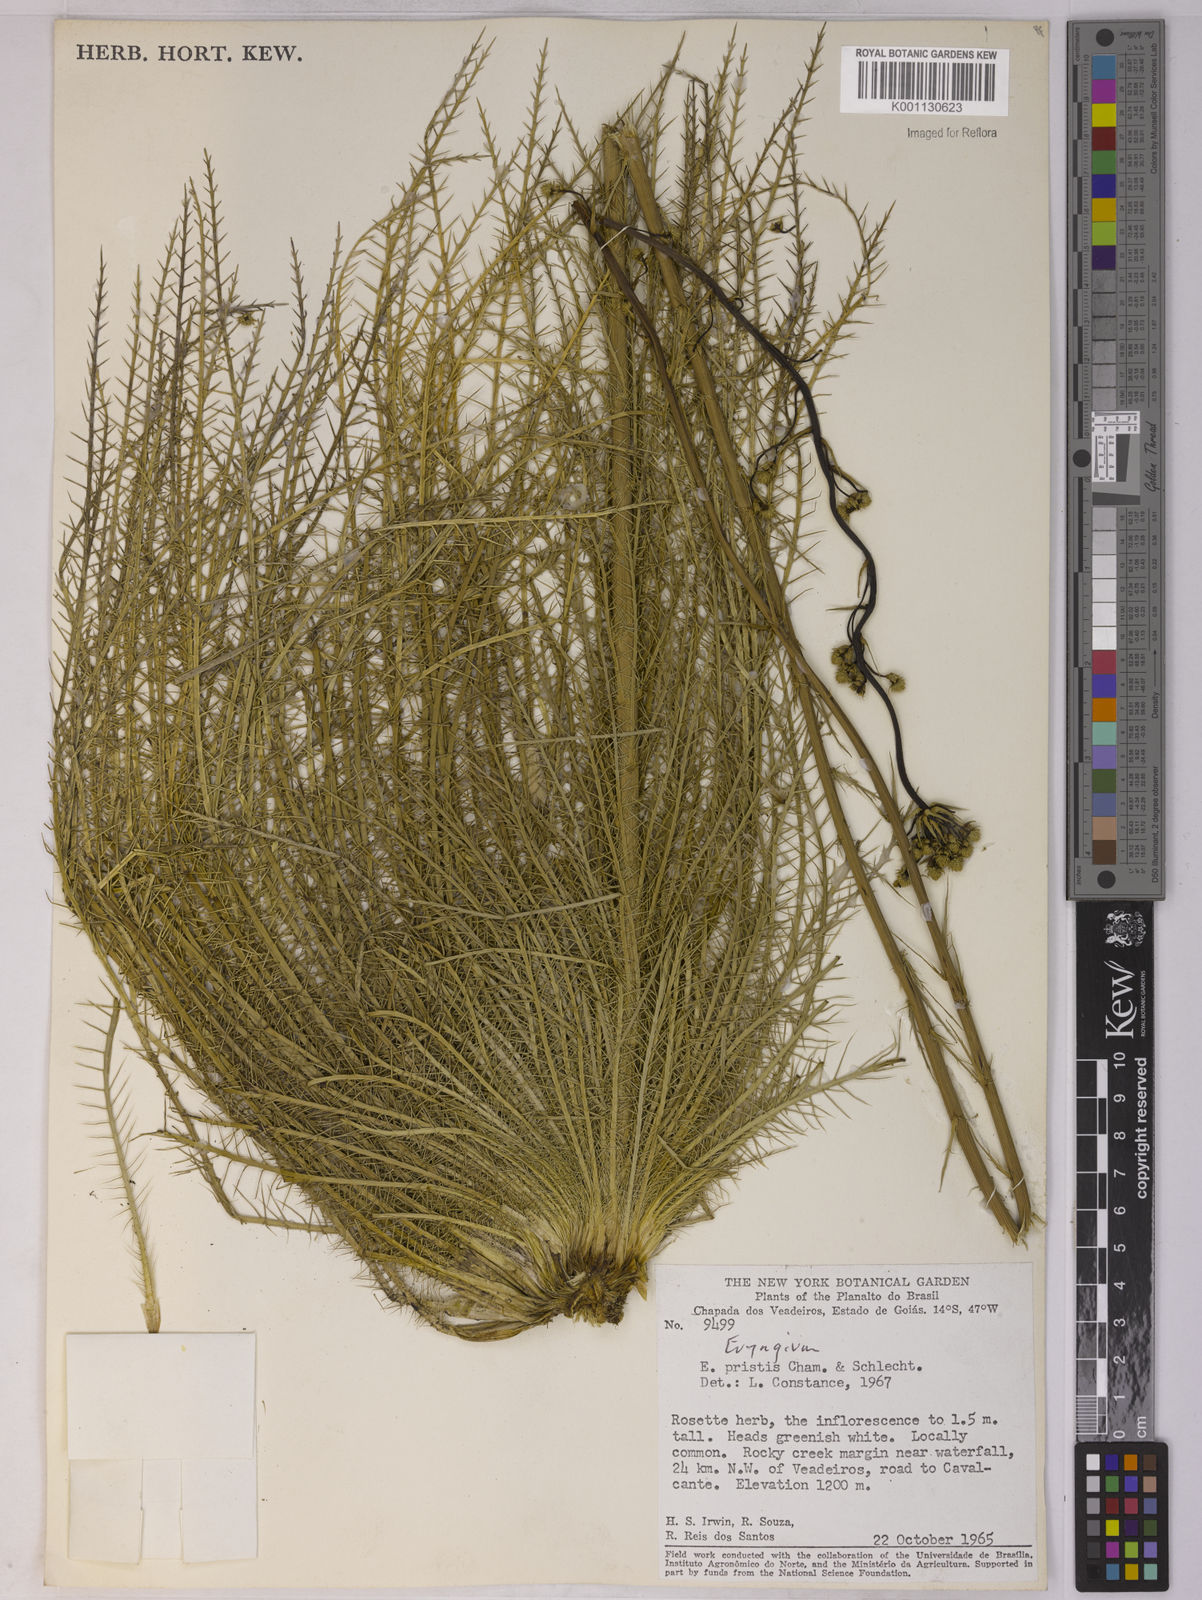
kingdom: Plantae
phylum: Tracheophyta
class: Magnoliopsida
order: Apiales
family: Apiaceae
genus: Eryngium
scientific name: Eryngium pristis
